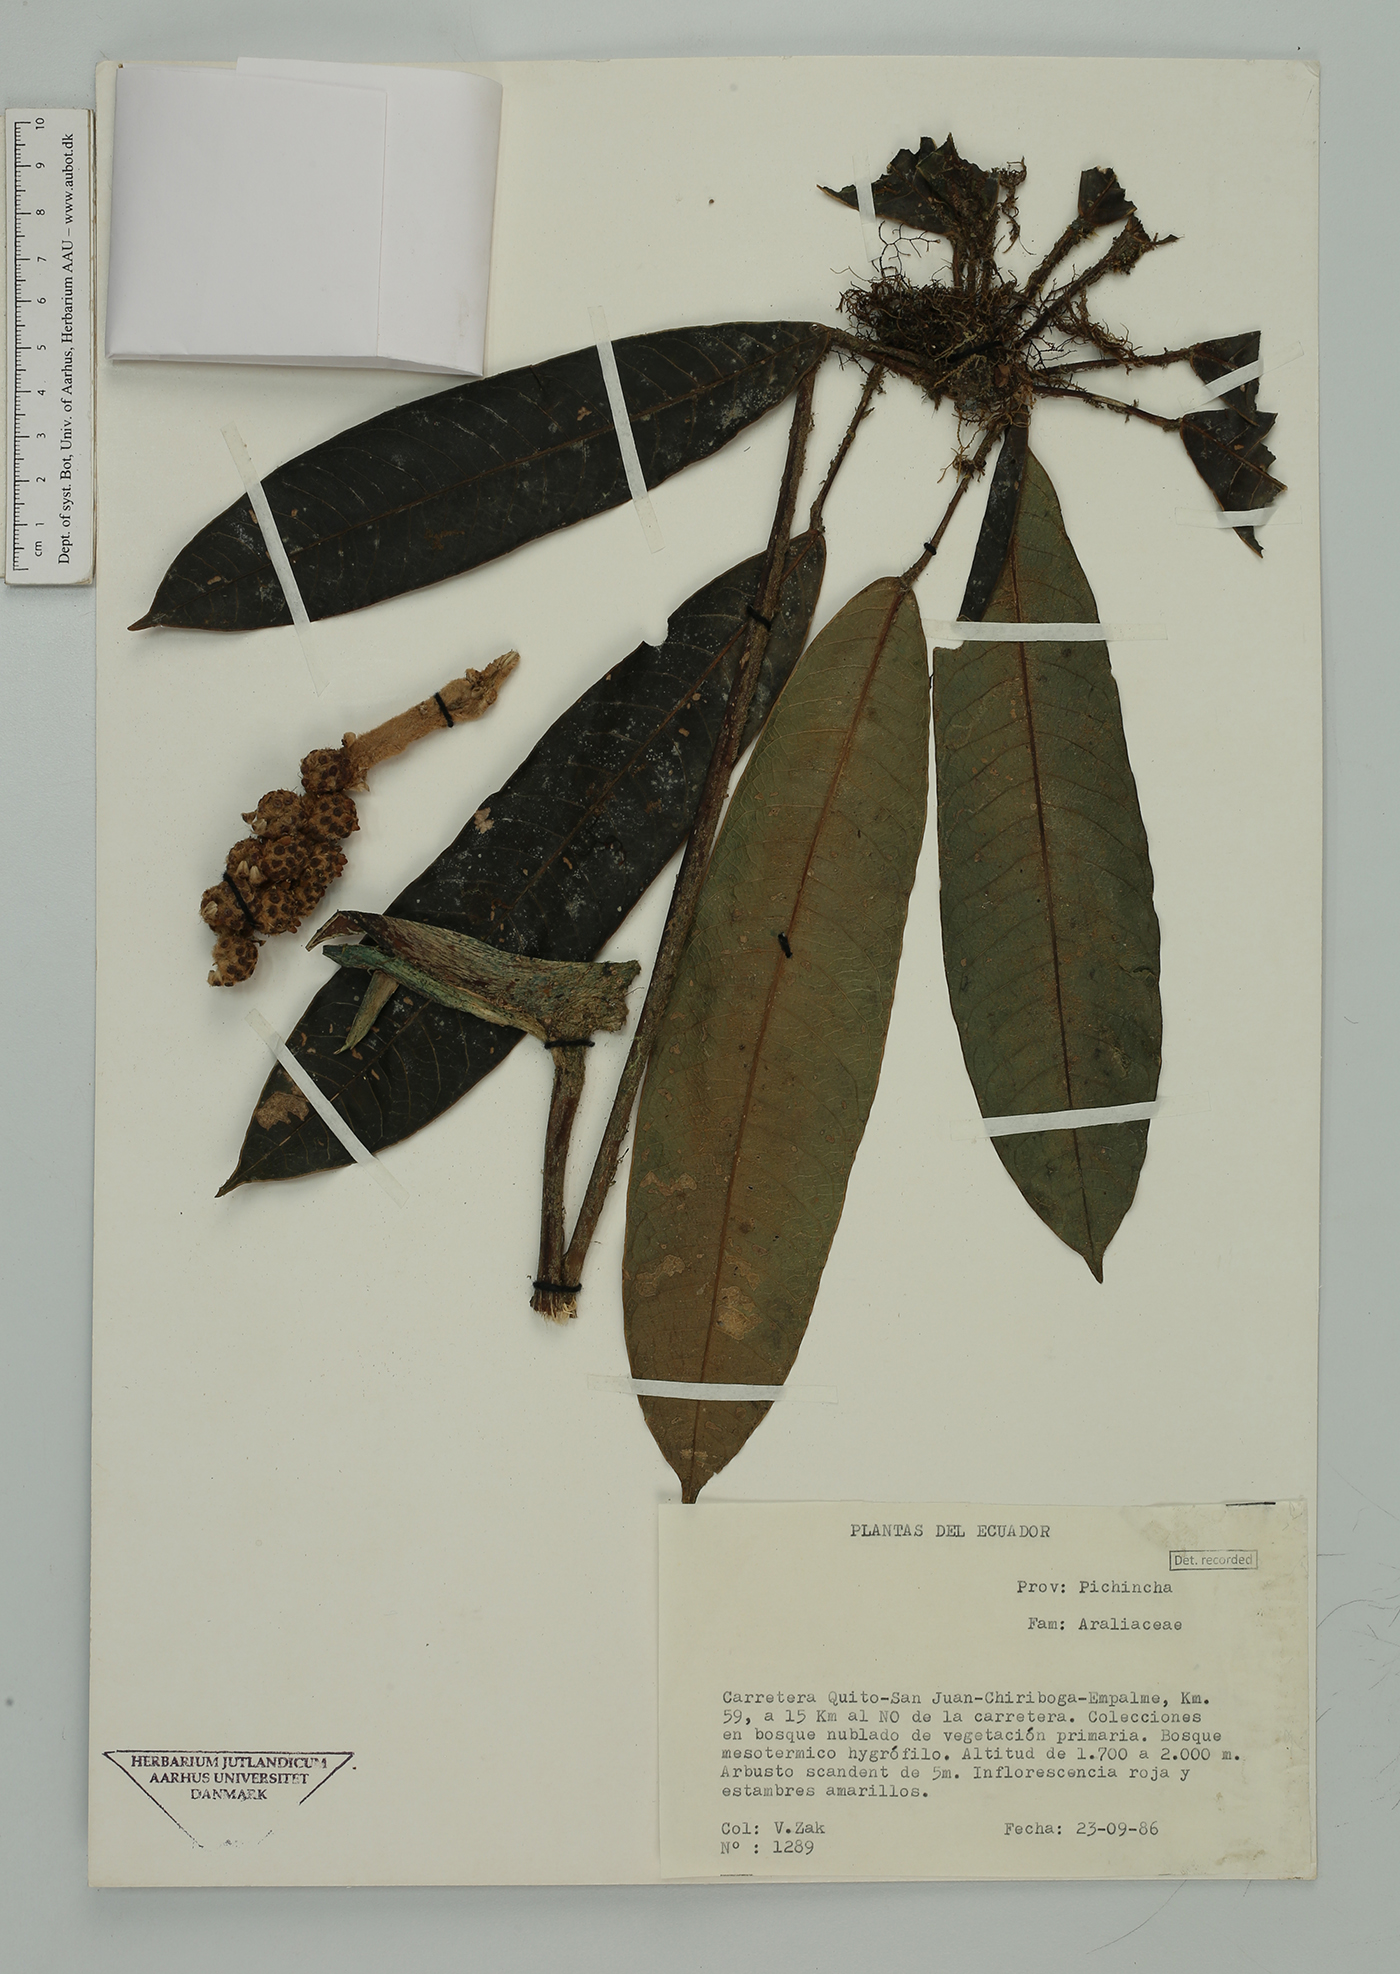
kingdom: Plantae
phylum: Tracheophyta
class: Magnoliopsida
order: Apiales
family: Araliaceae
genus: Sciodaphyllum
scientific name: Sciodaphyllum
